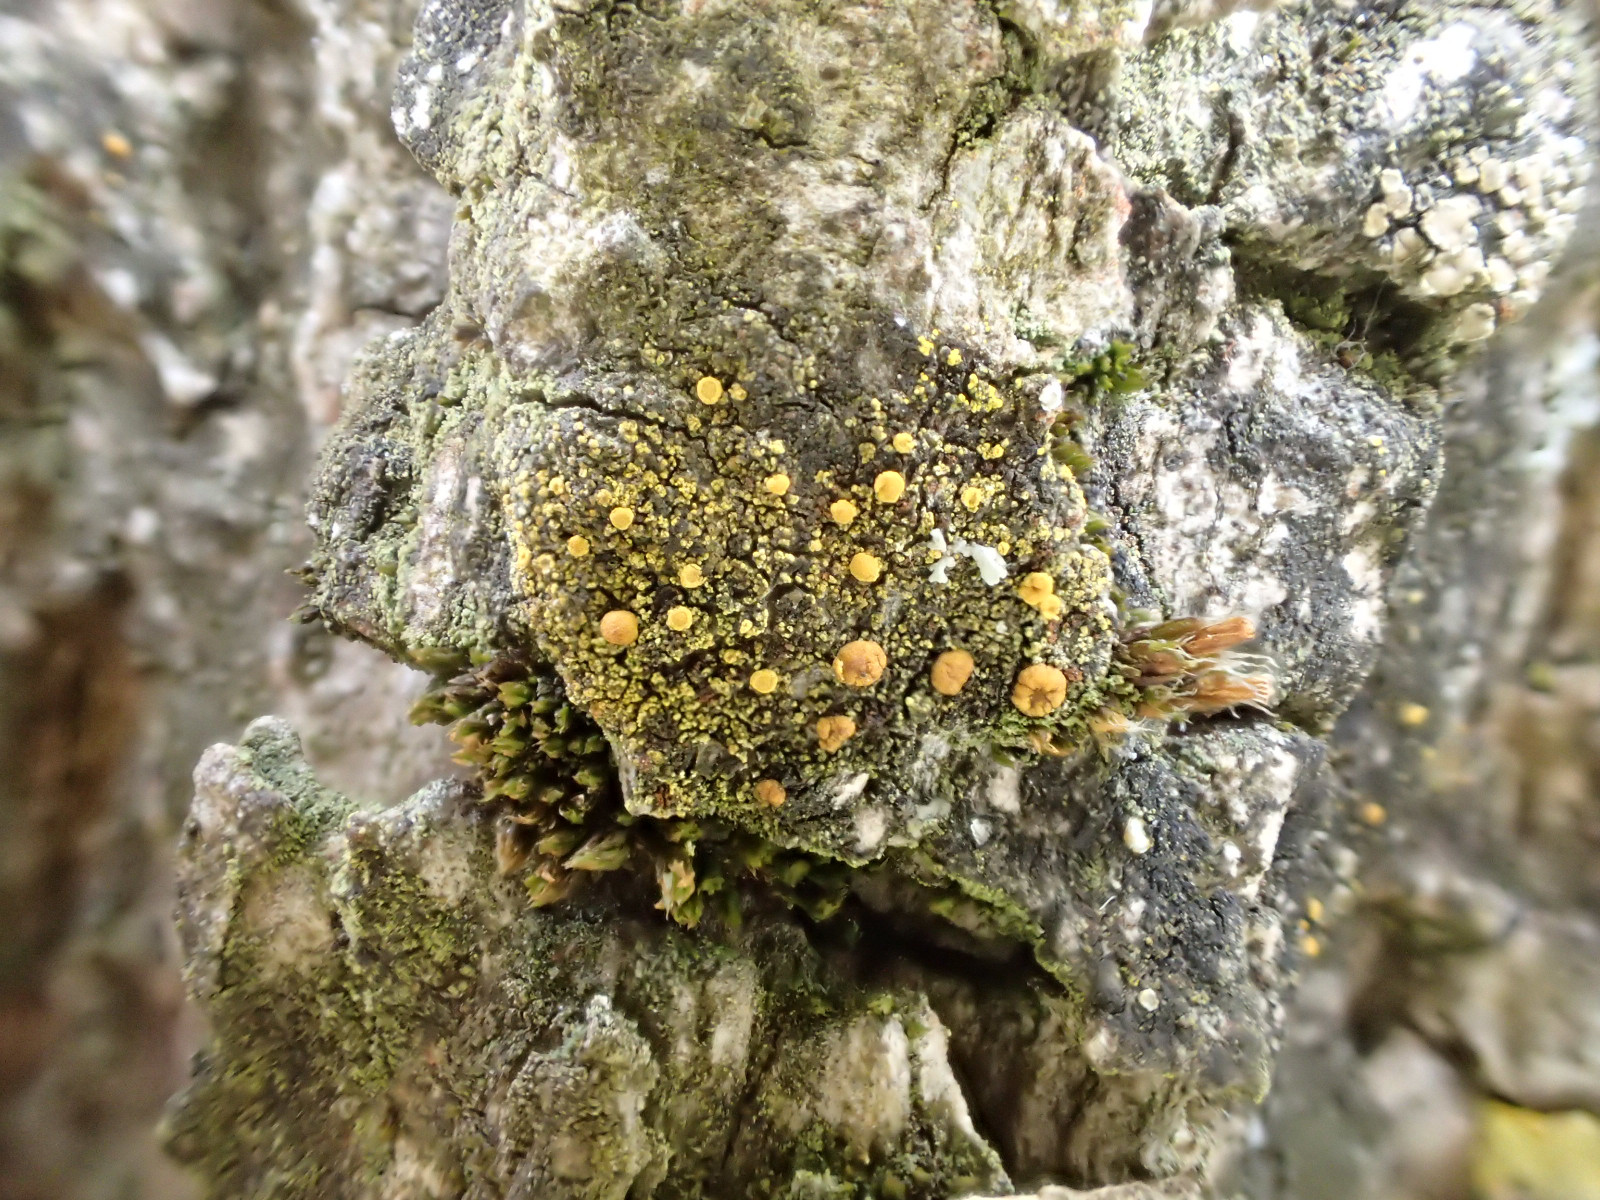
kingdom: Fungi
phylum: Ascomycota
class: Lecanoromycetes
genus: Scythioria
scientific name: Scythioria phlogina
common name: flammet orangelav
